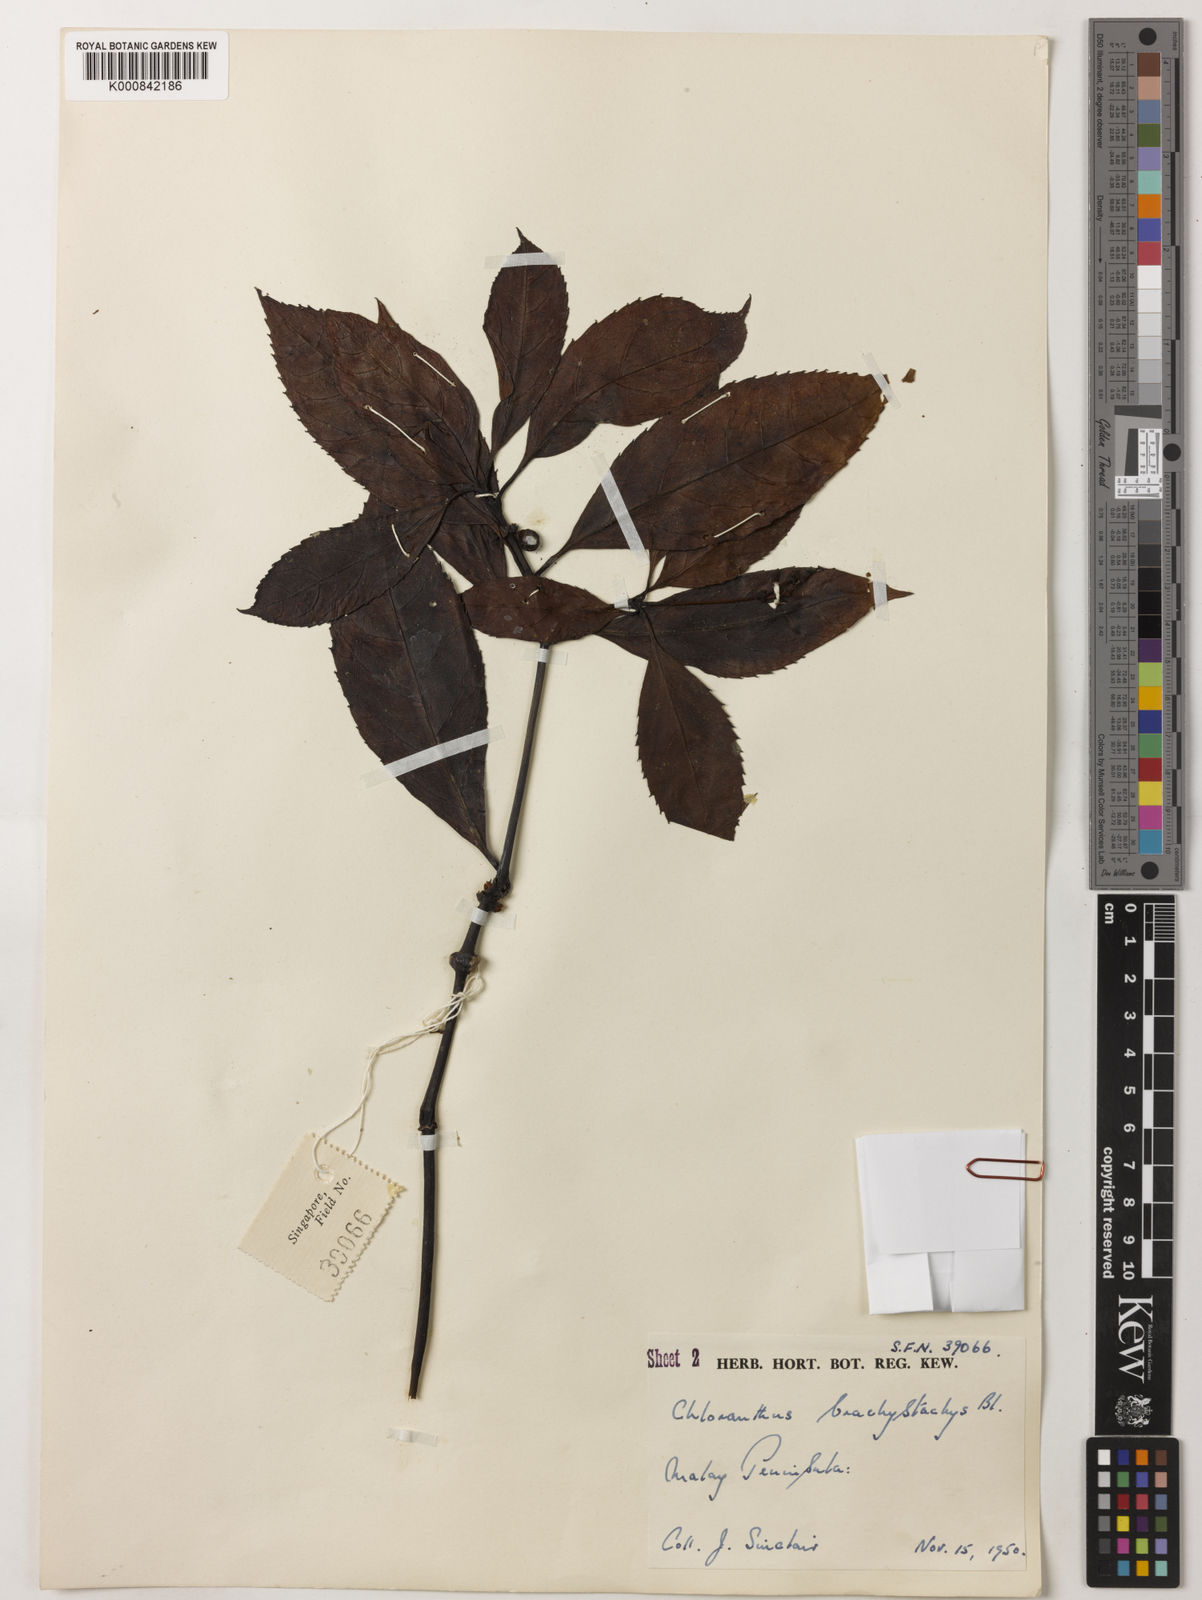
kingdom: Plantae
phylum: Tracheophyta
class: Magnoliopsida
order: Chloranthales
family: Chloranthaceae
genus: Sarcandra
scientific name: Sarcandra glabra
